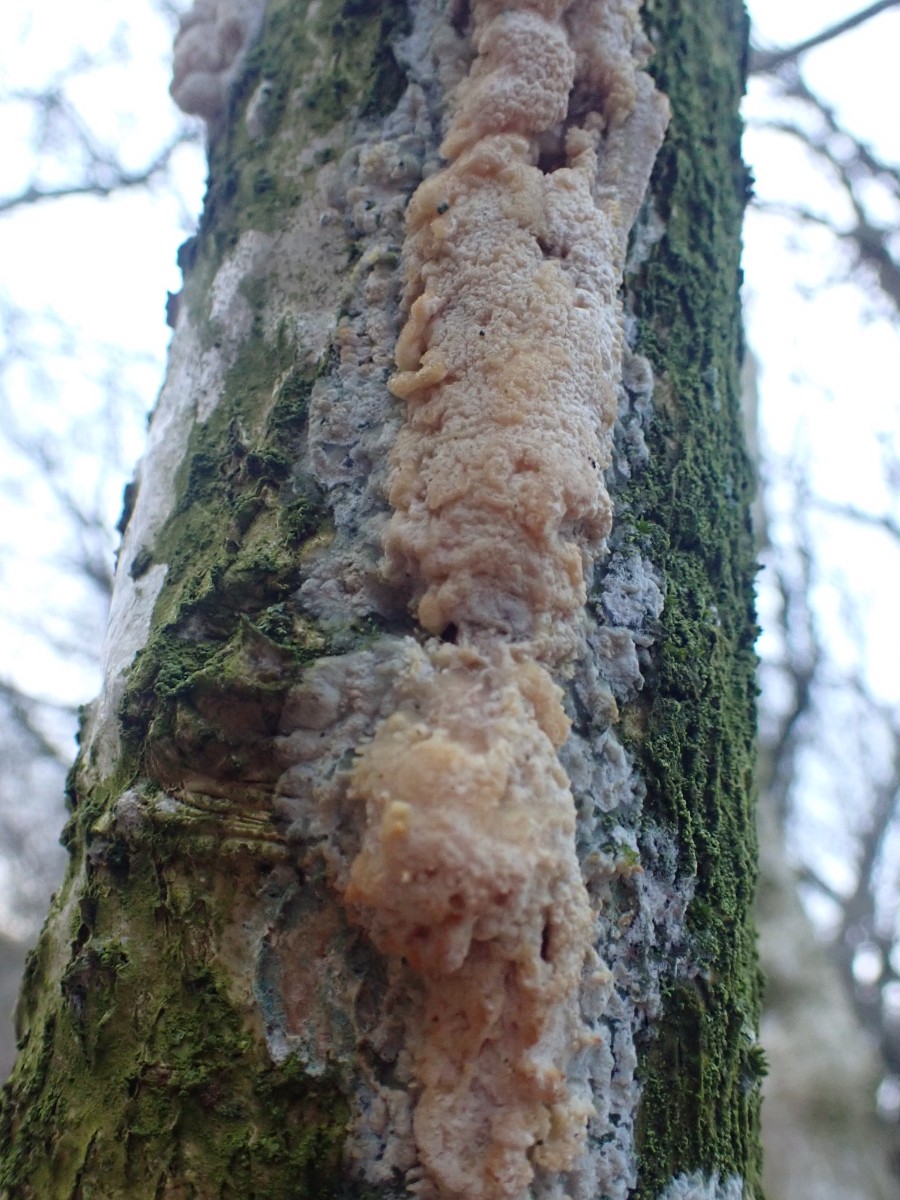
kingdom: Fungi
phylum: Basidiomycota
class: Agaricomycetes
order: Russulales
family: Peniophoraceae
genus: Peniophora
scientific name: Peniophora quercina
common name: ege-voksskind
